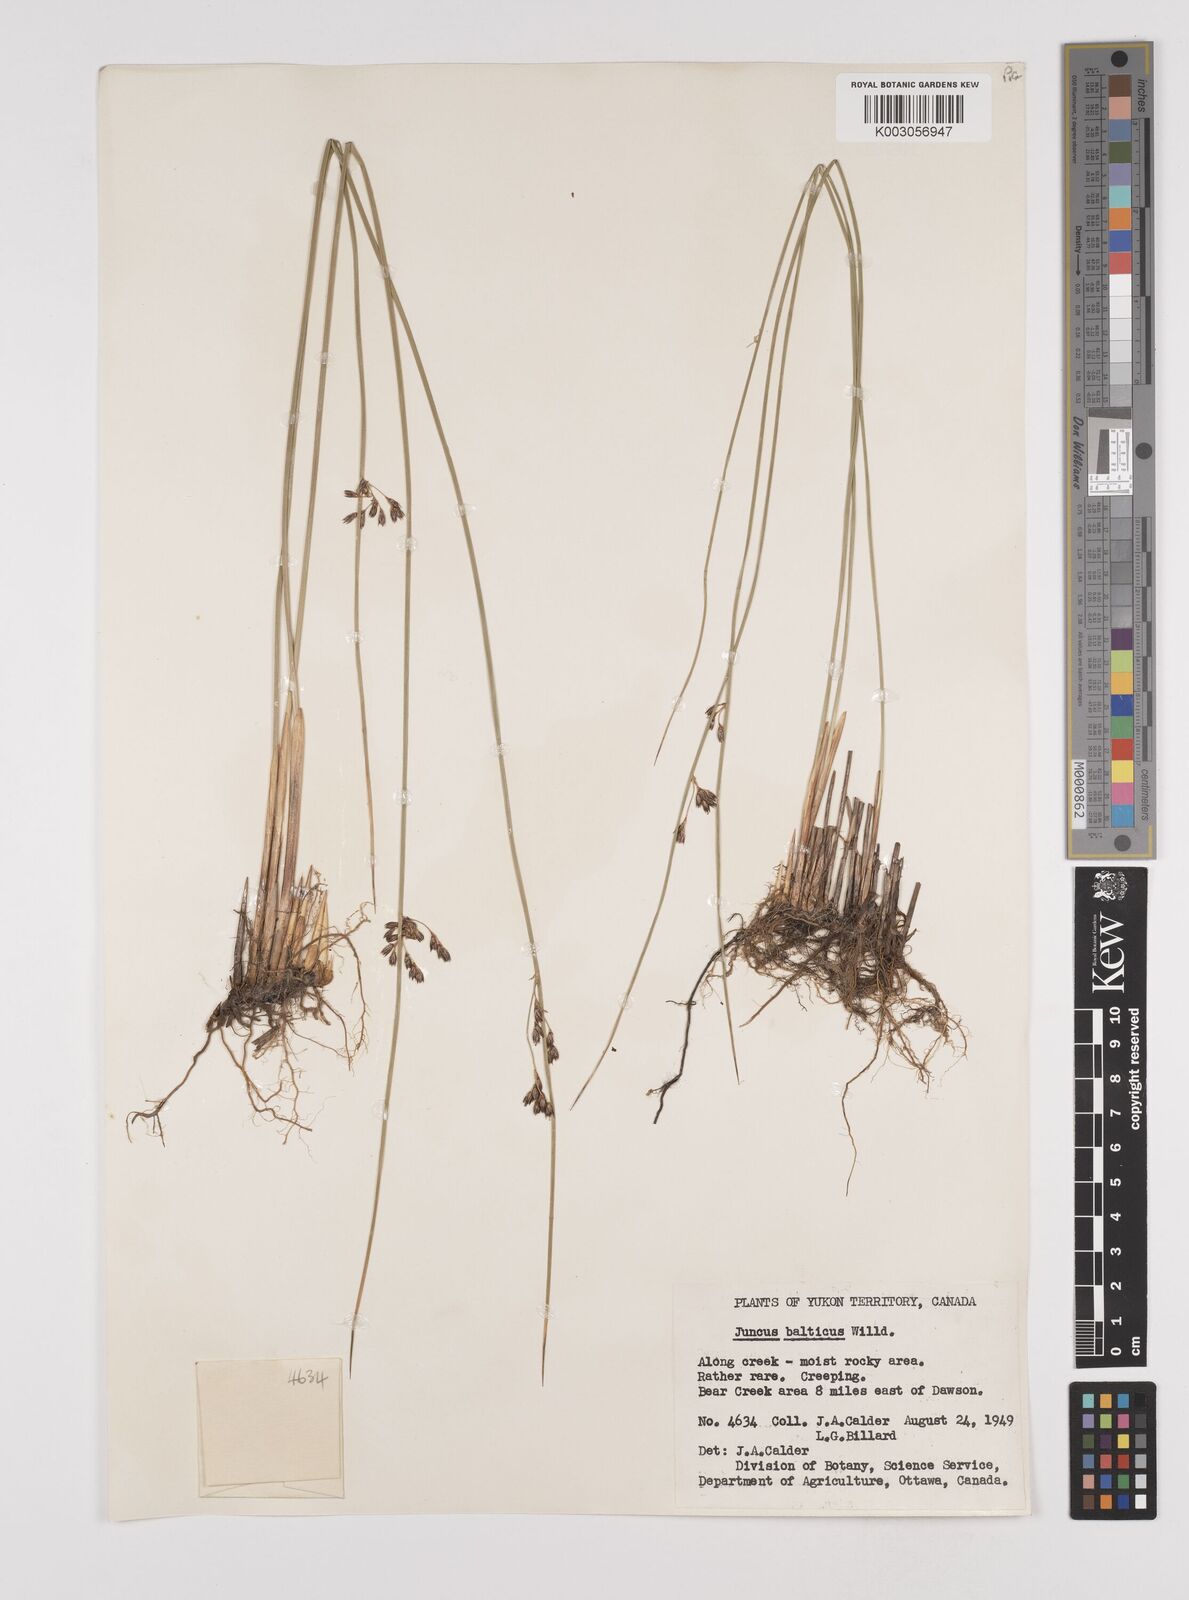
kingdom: Plantae
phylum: Tracheophyta
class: Liliopsida
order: Poales
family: Juncaceae
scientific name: Juncaceae
